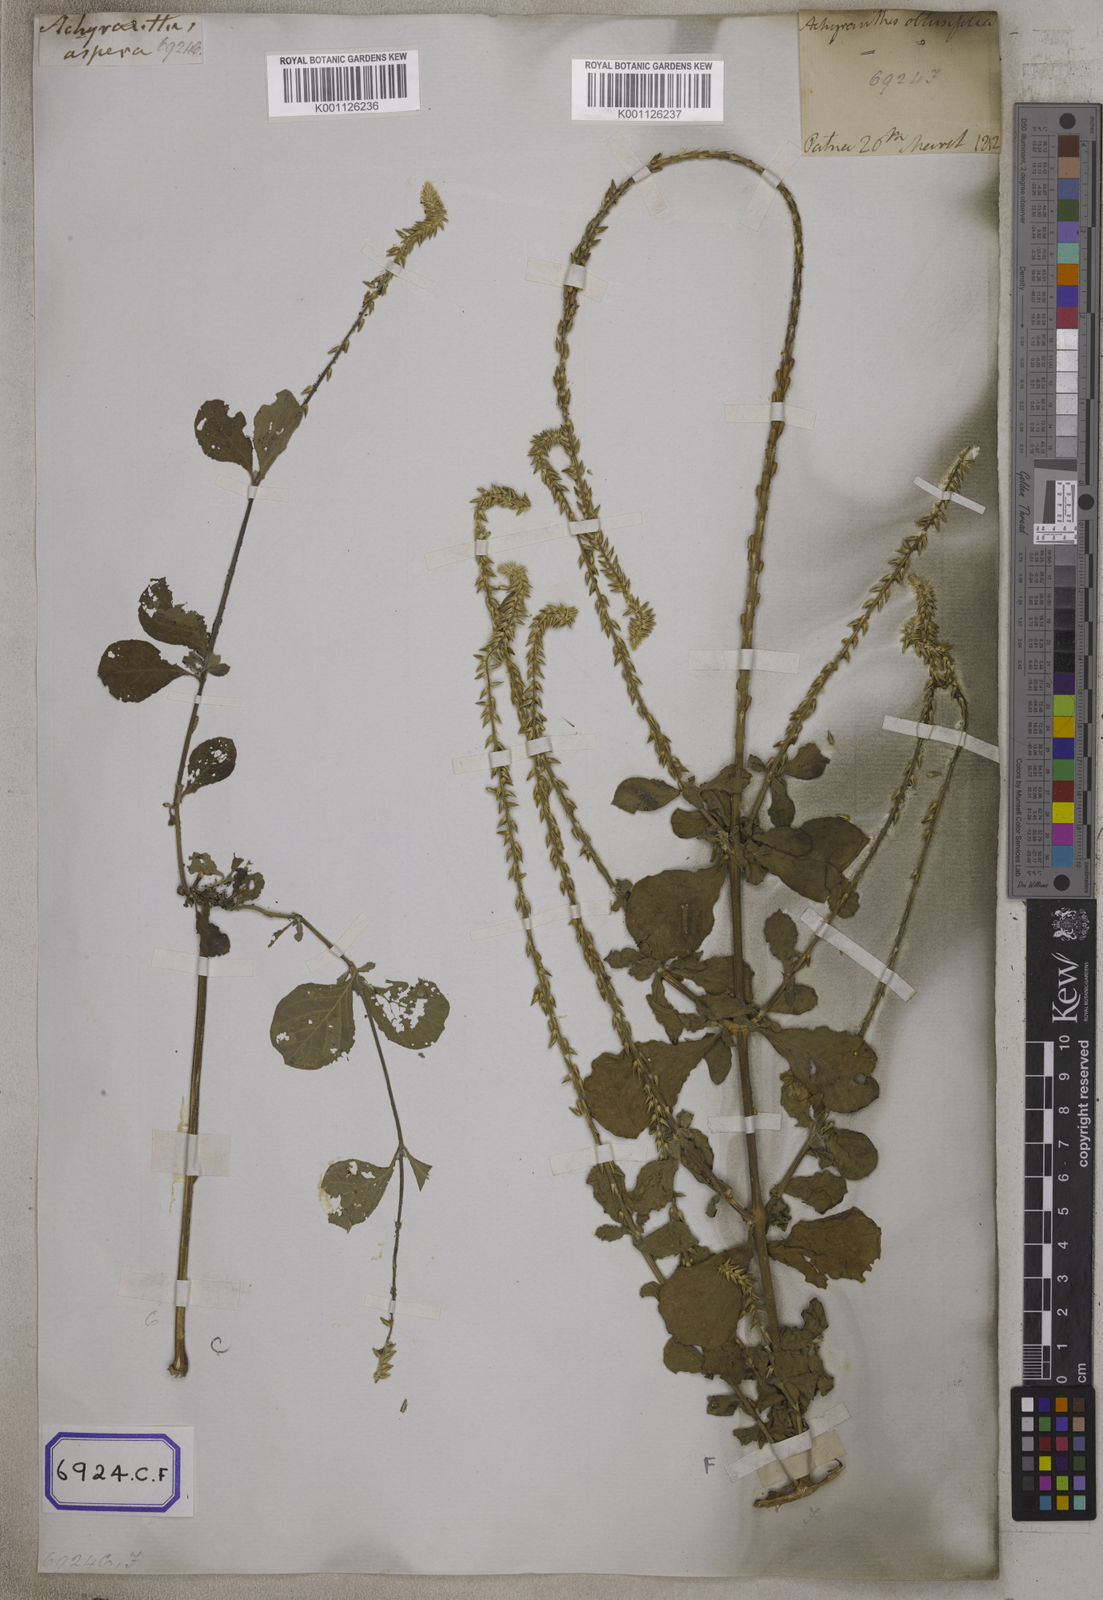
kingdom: Plantae
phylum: Tracheophyta
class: Magnoliopsida
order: Caryophyllales
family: Amaranthaceae
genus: Achyranthes
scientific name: Achyranthes
